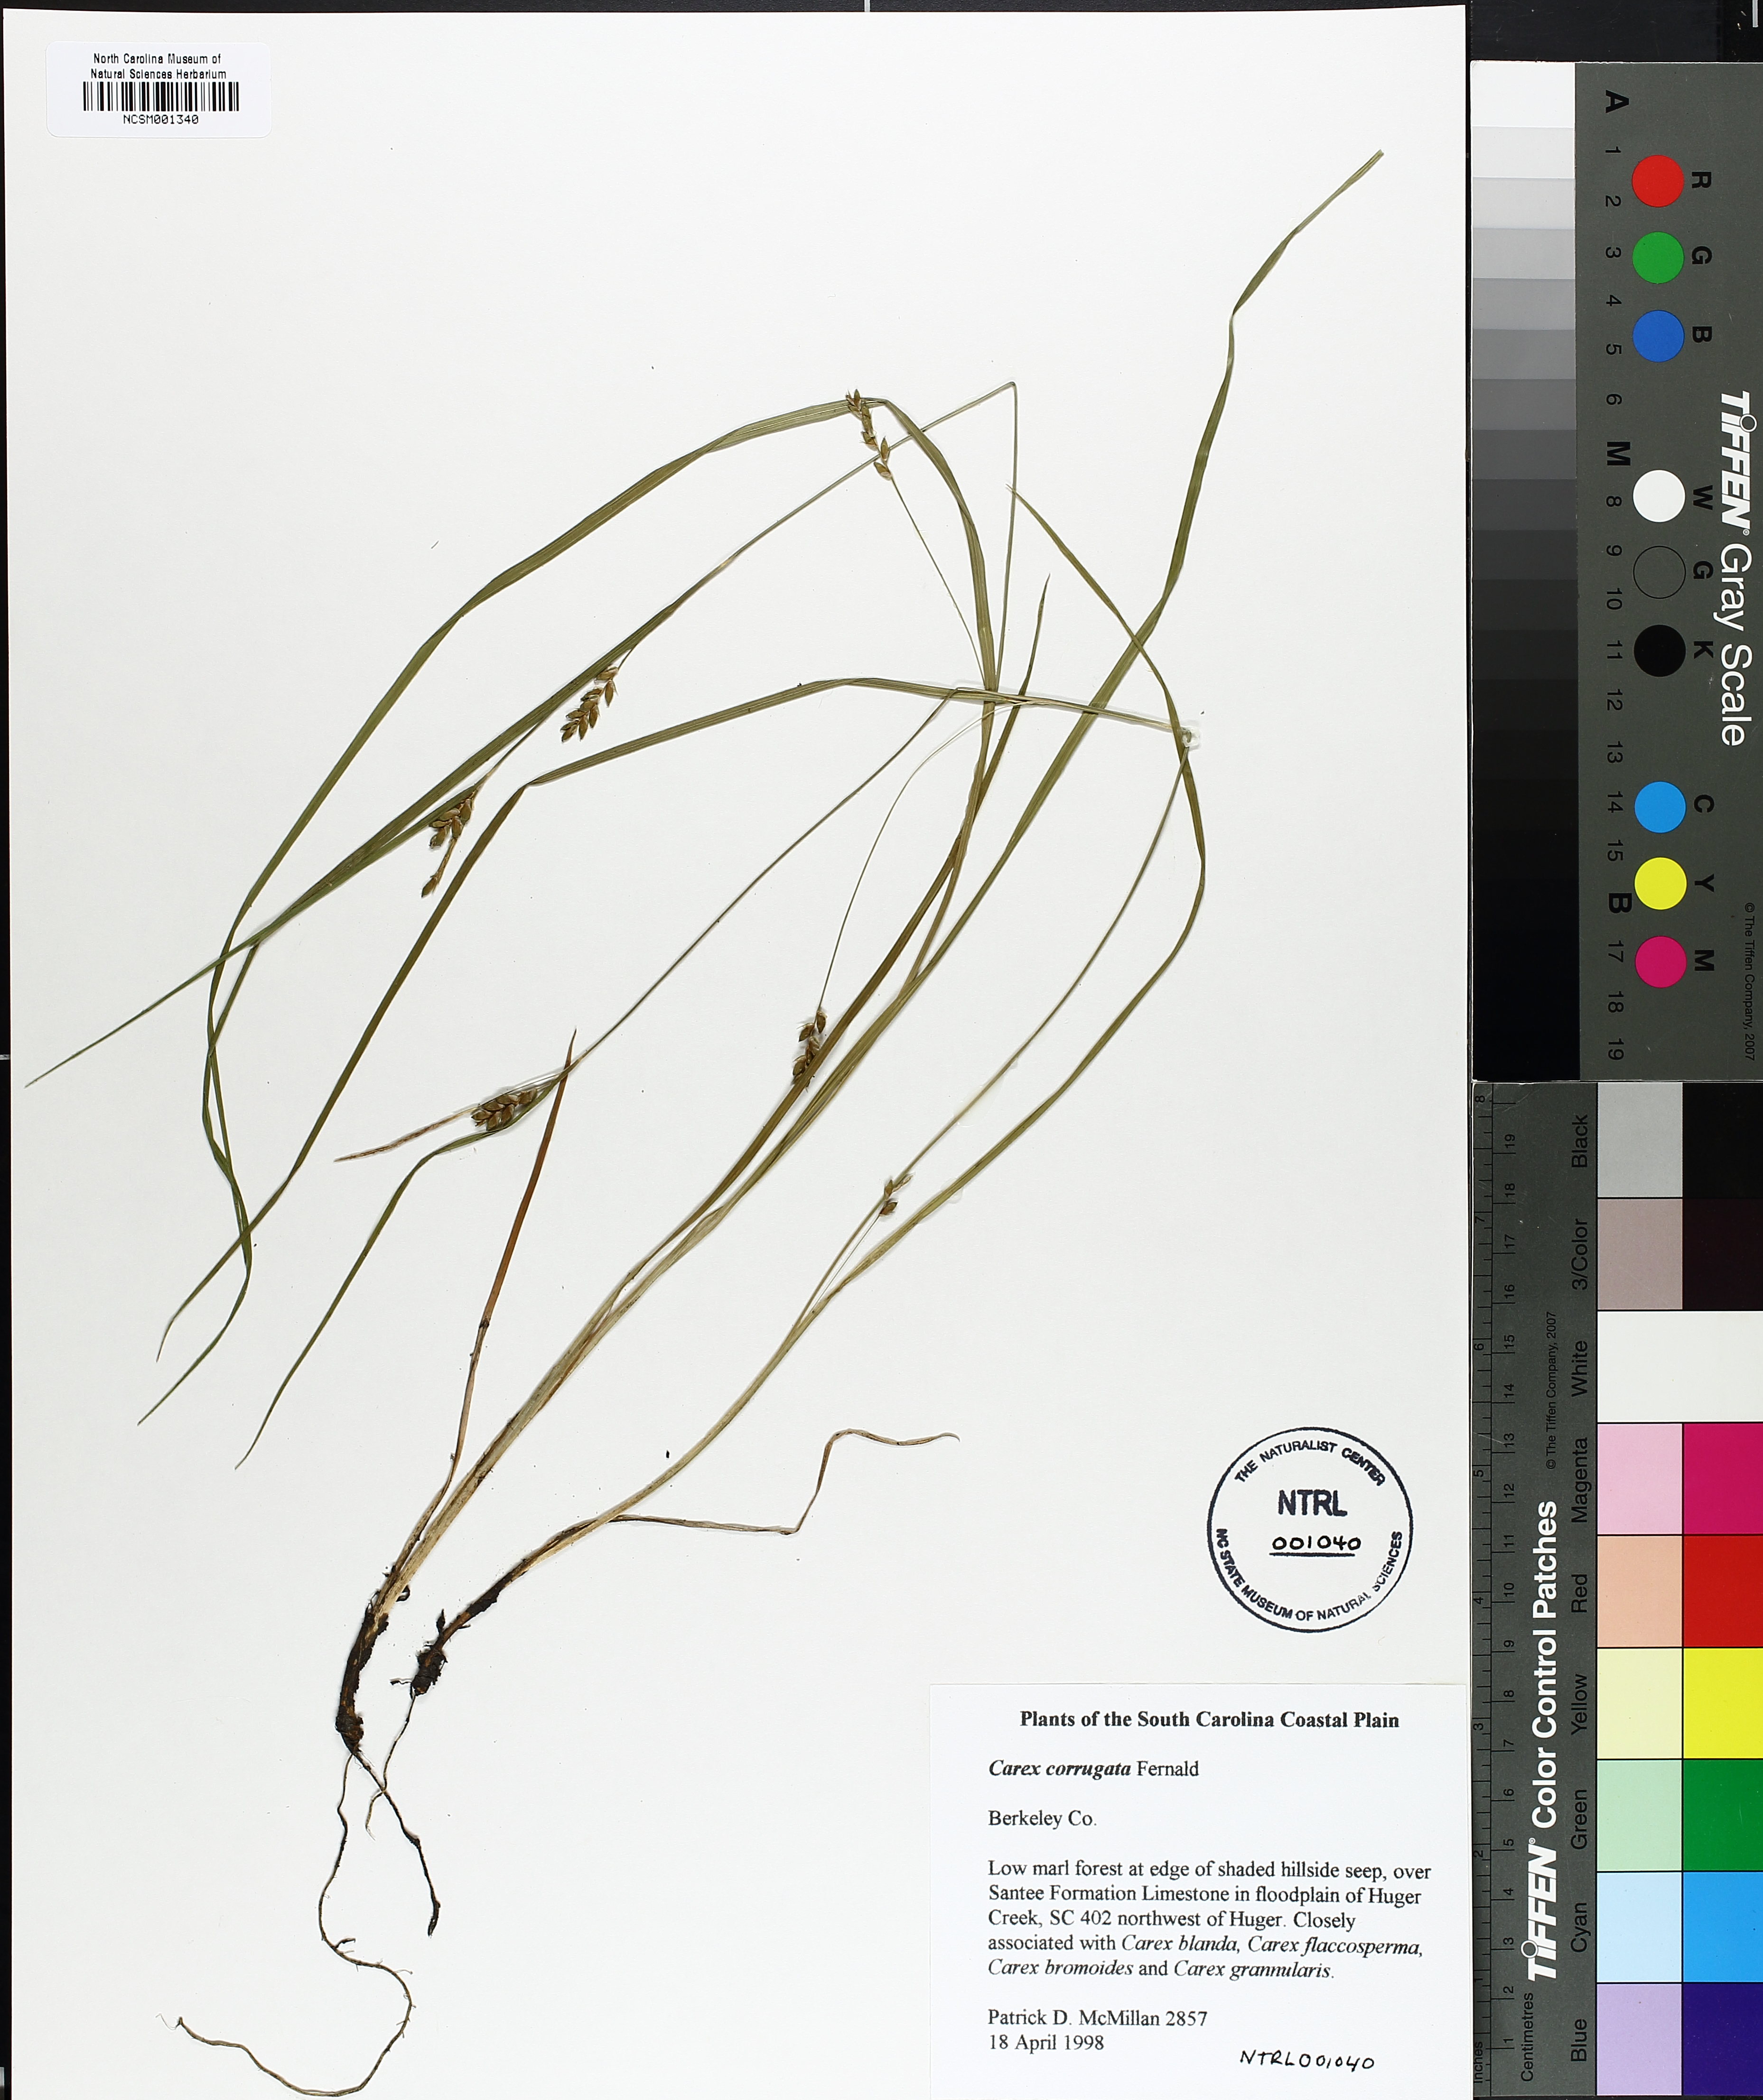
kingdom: Plantae
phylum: Tracheophyta
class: Liliopsida
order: Poales
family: Cyperaceae
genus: Carex
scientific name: Carex amphibola
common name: Amphibious sedge
